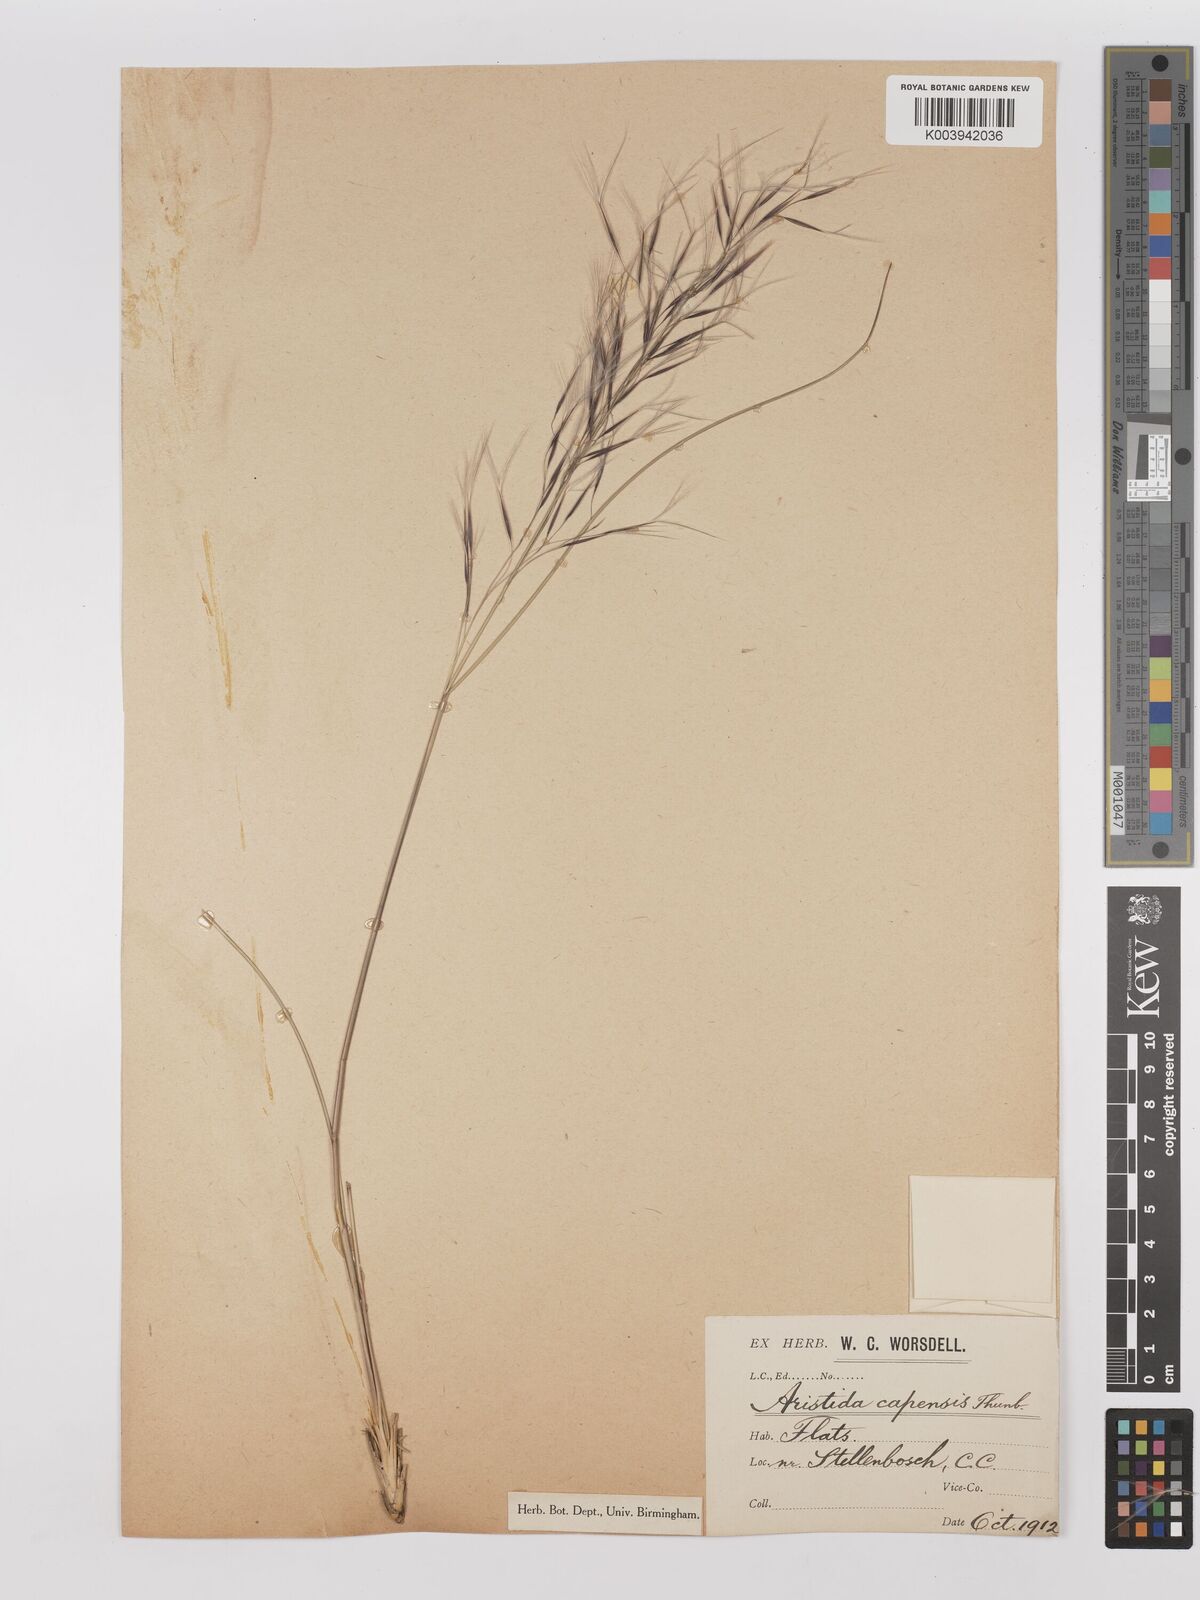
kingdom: Plantae
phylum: Tracheophyta
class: Liliopsida
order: Poales
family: Poaceae
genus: Stipagrostis
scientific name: Stipagrostis zeyheri
